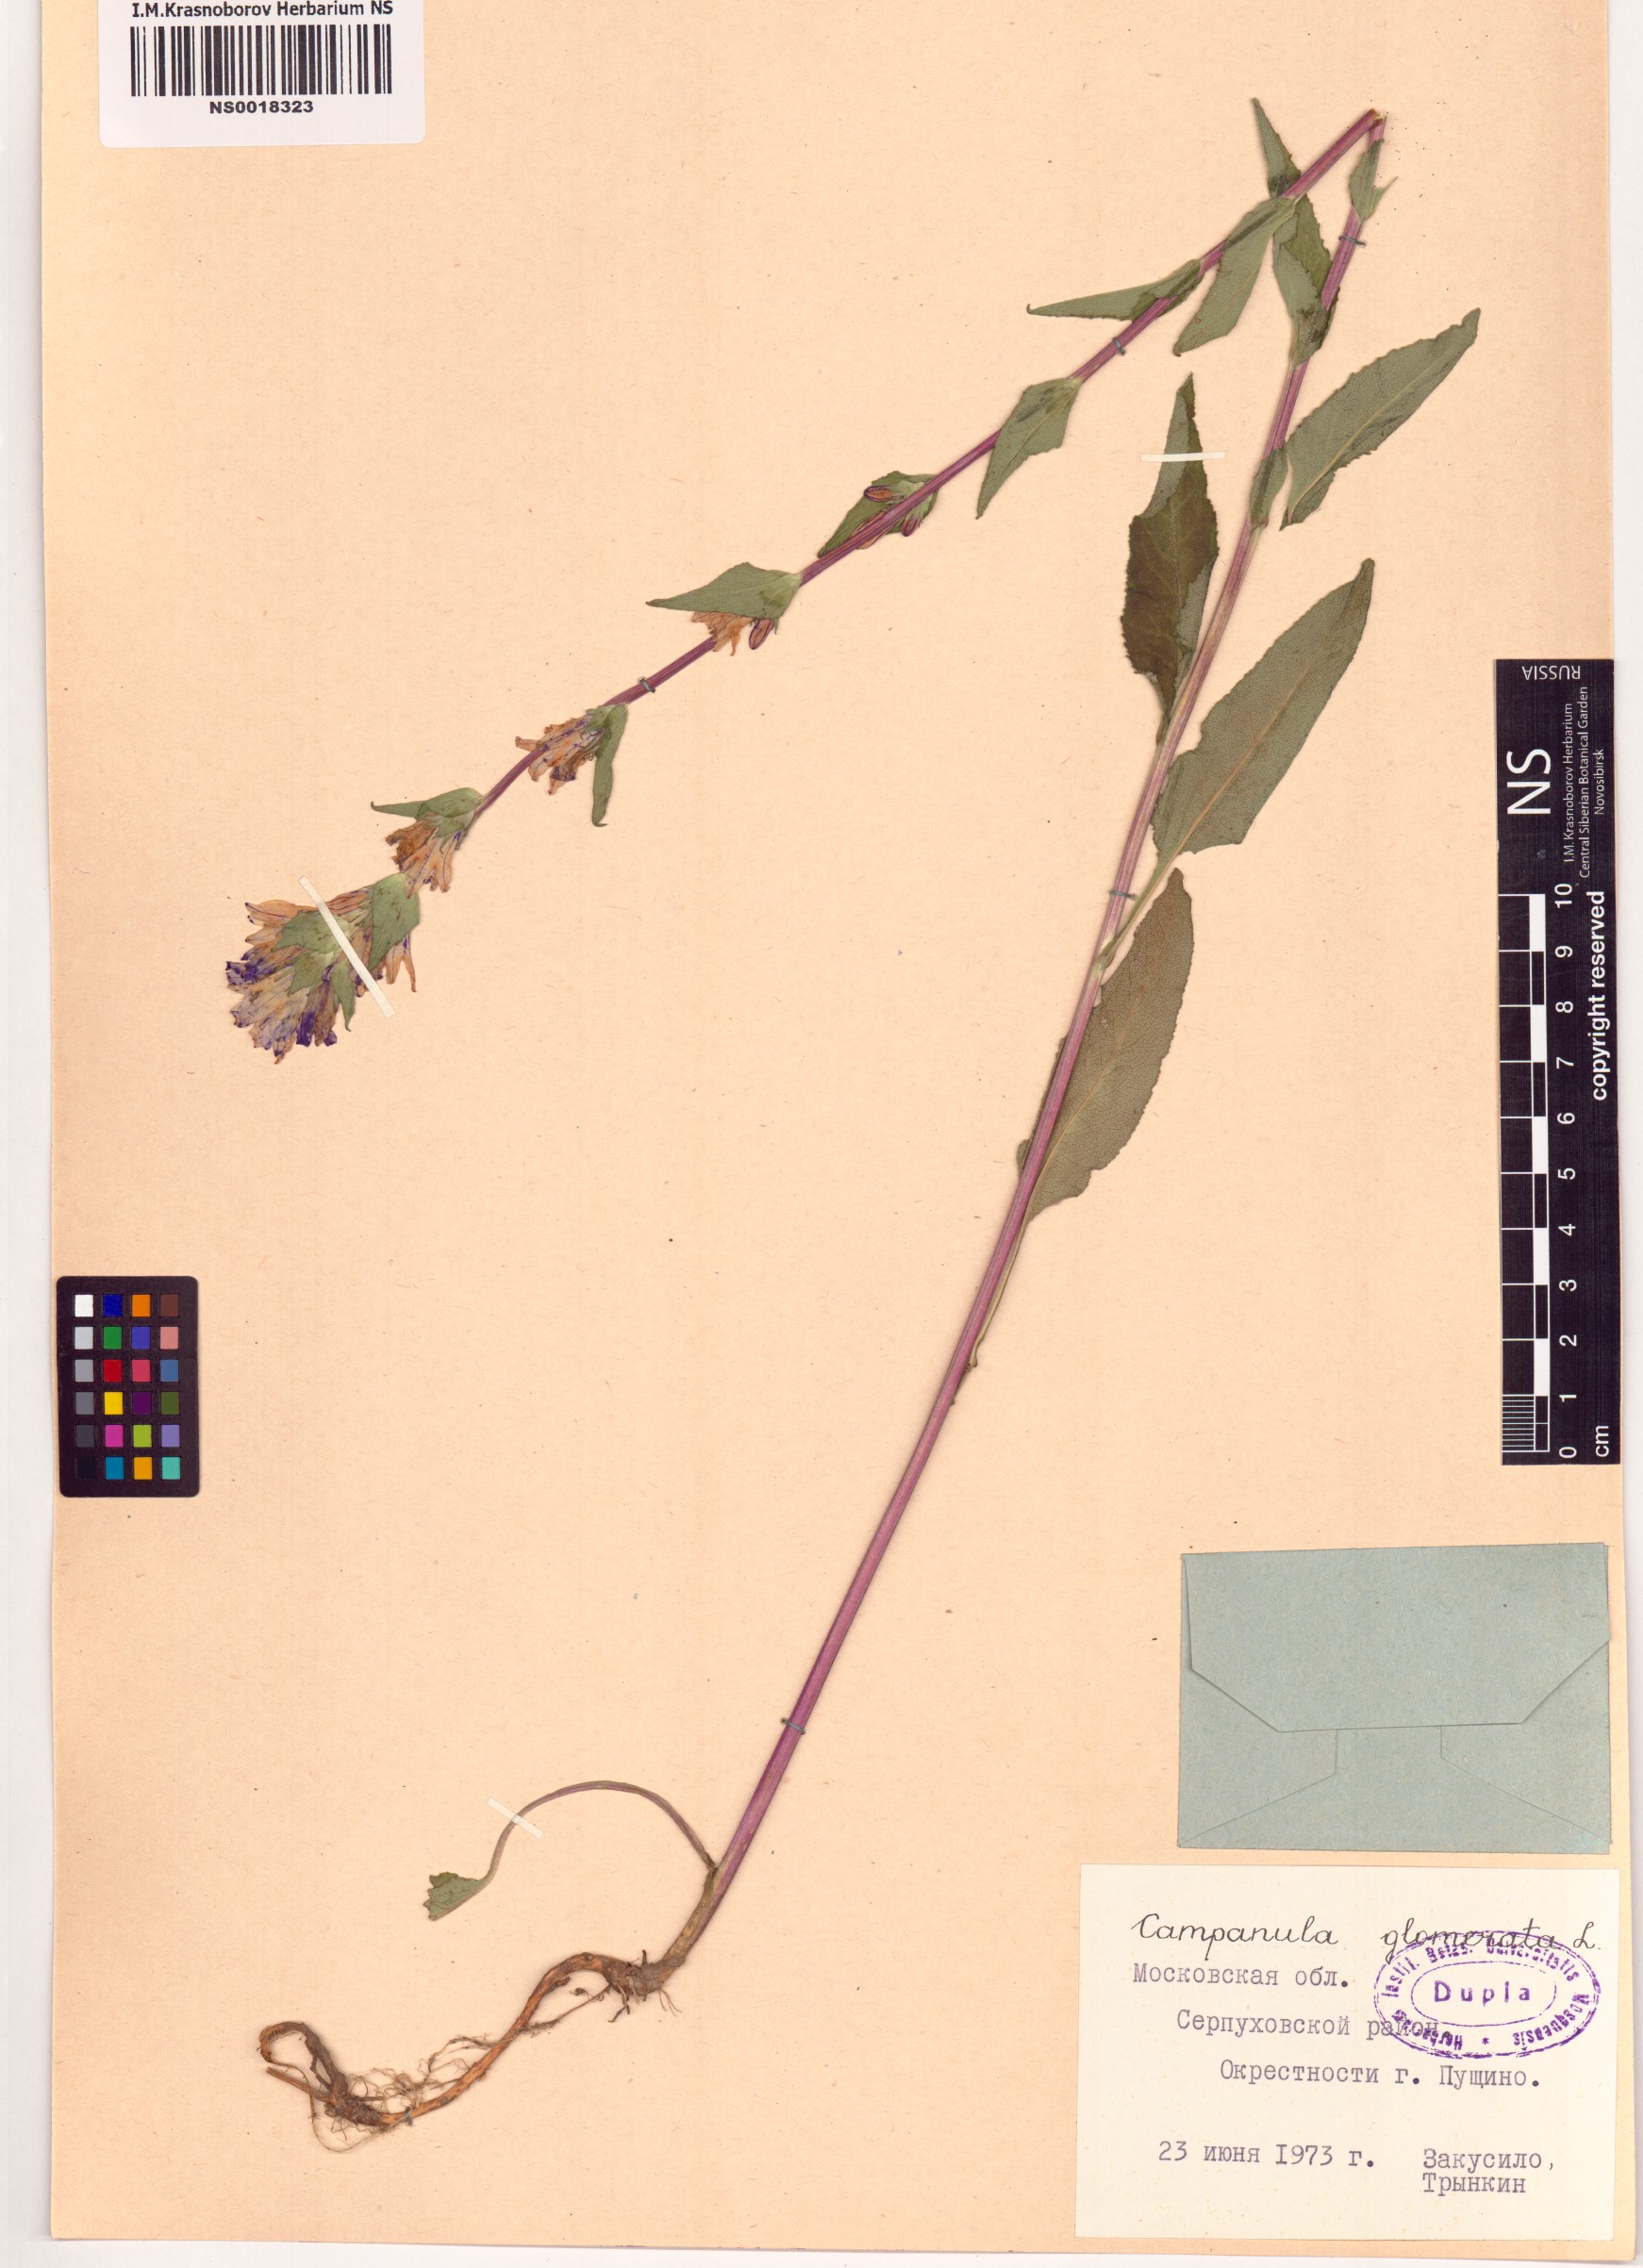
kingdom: Plantae
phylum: Tracheophyta
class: Magnoliopsida
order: Asterales
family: Campanulaceae
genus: Campanula
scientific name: Campanula glomerata
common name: Clustered bellflower
